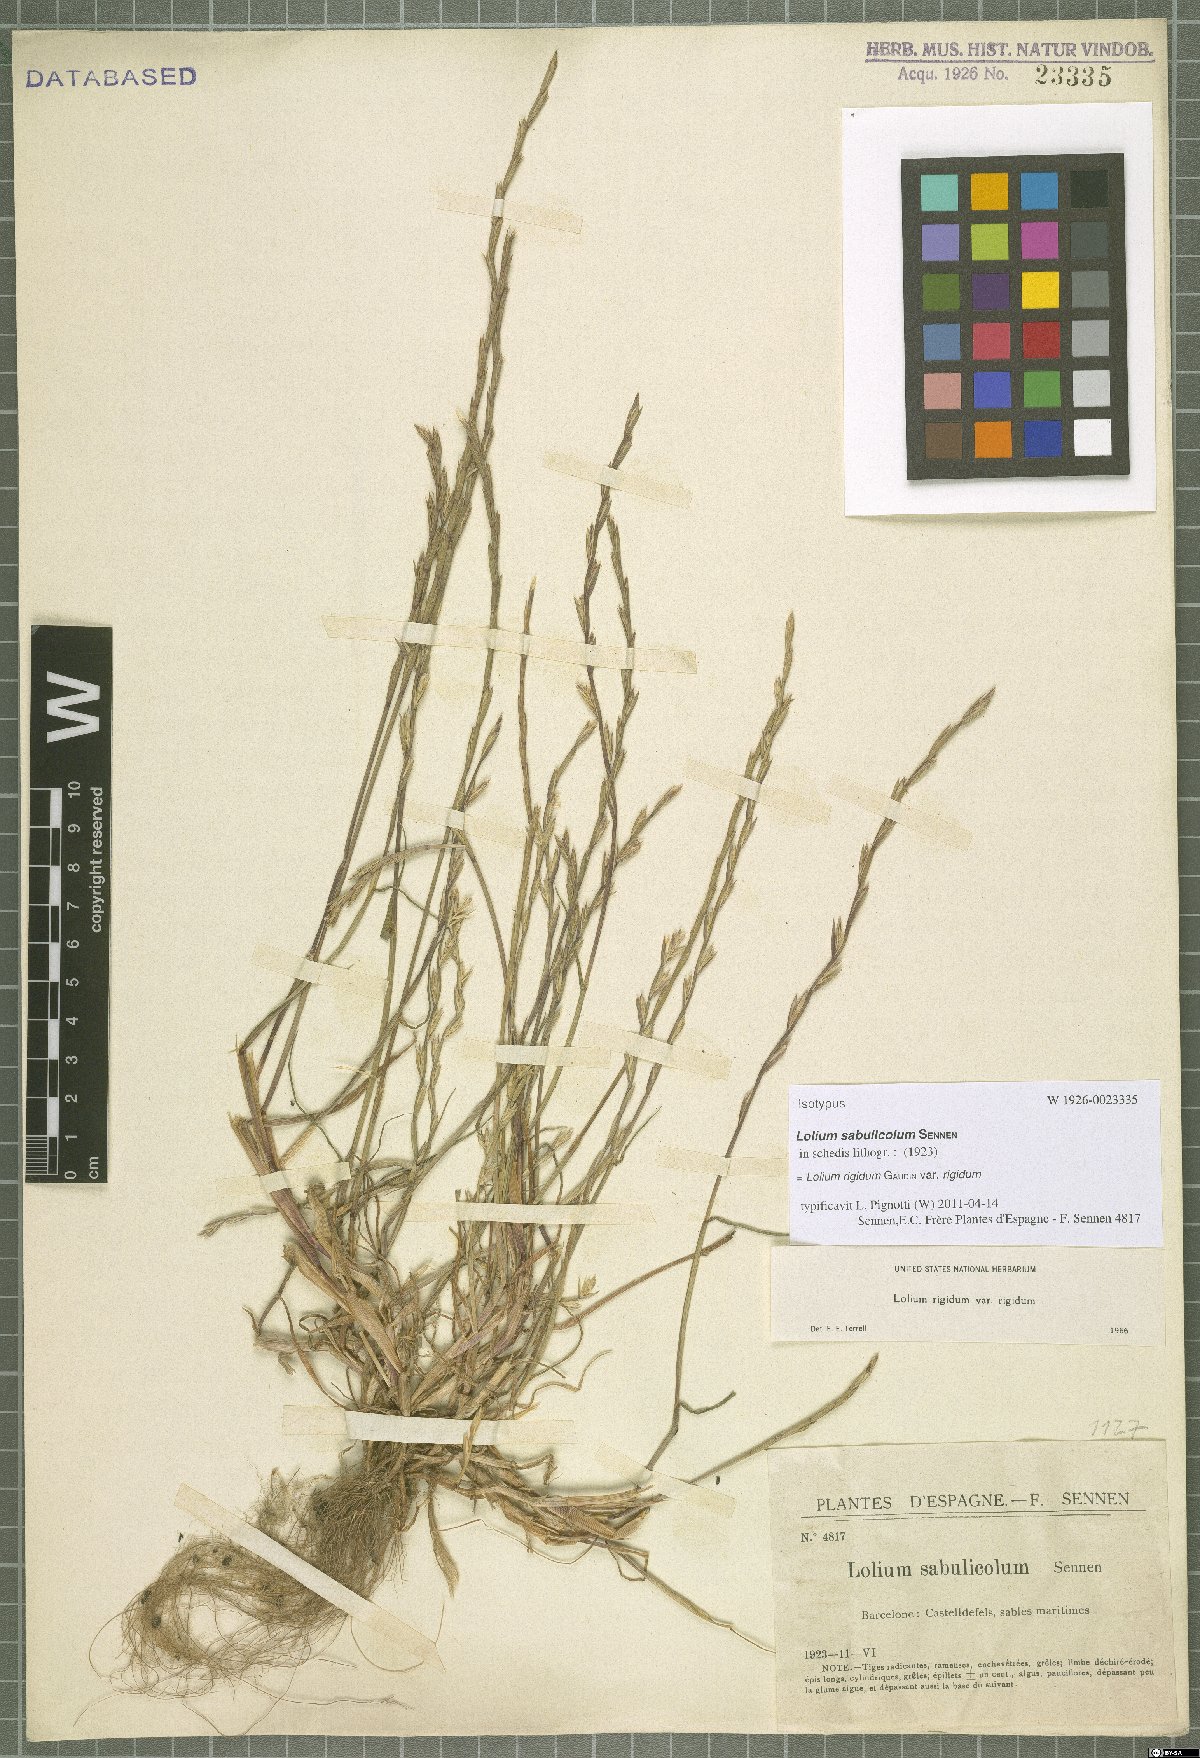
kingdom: Plantae
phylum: Tracheophyta
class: Liliopsida
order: Poales
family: Poaceae
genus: Lolium
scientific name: Lolium rigidum
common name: Wimmera ryegrass
